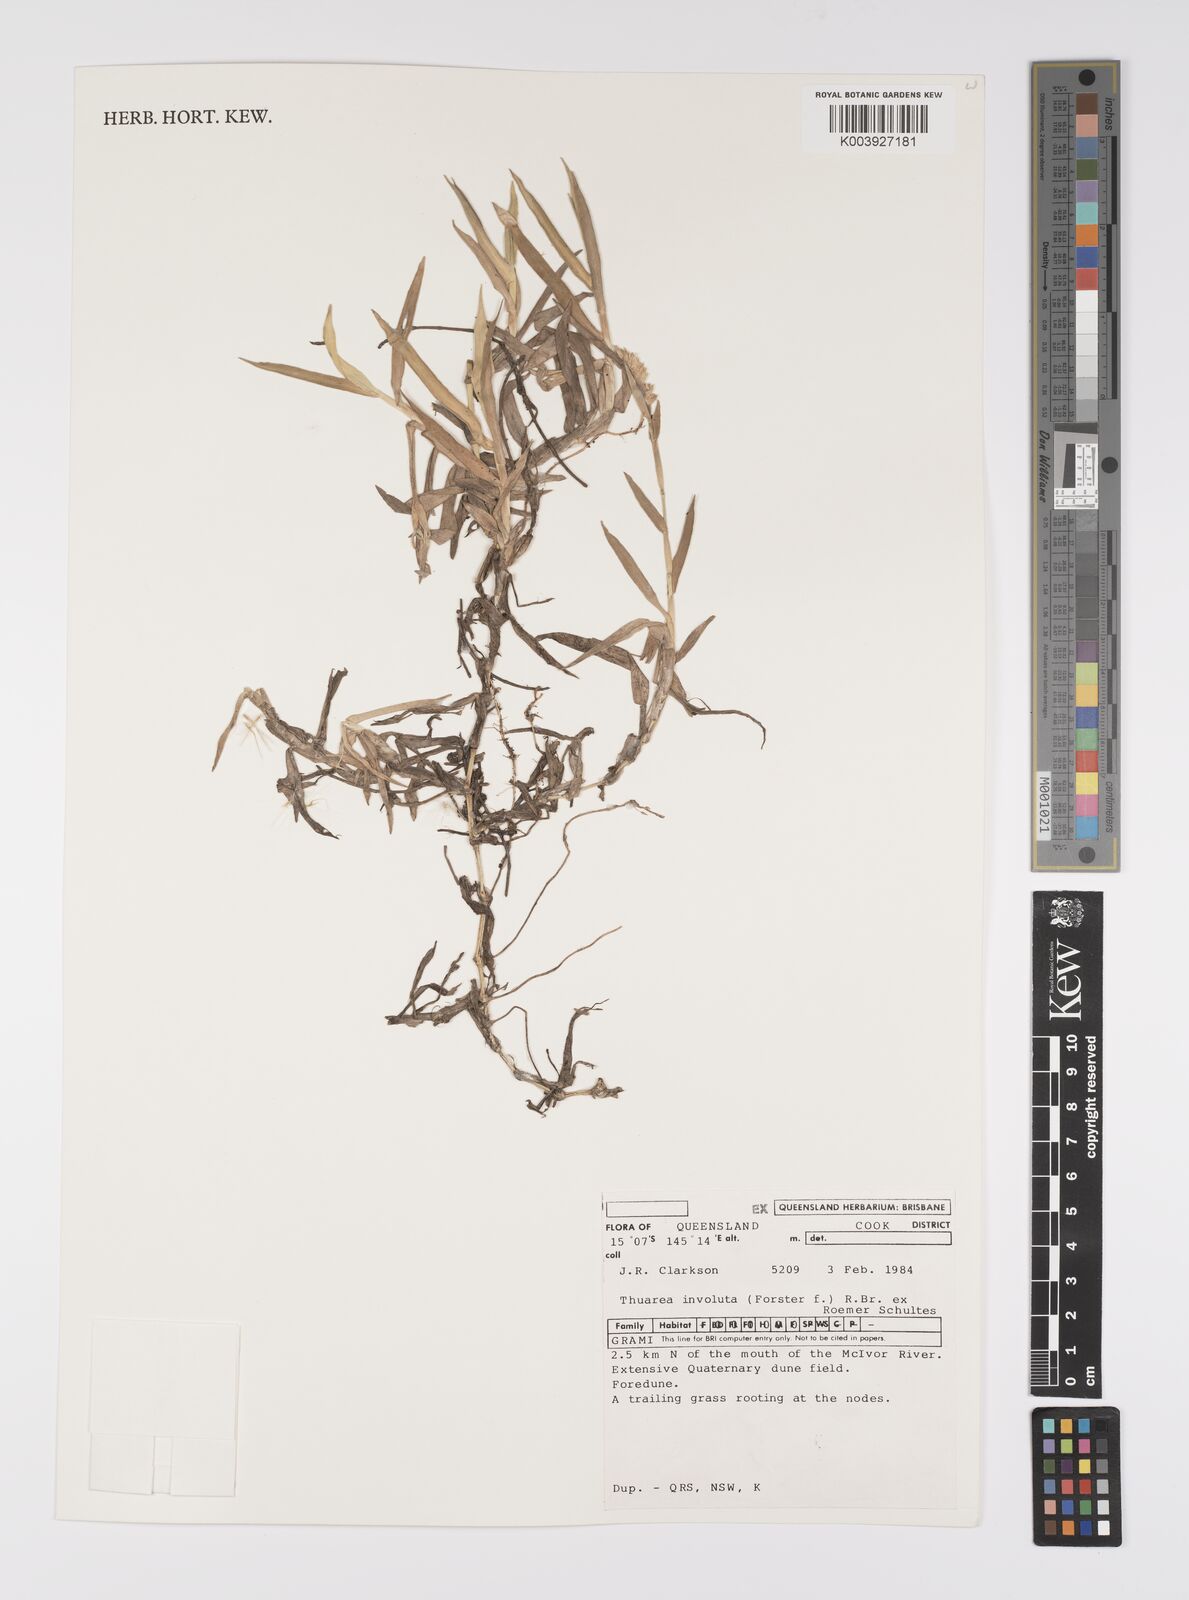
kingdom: Plantae
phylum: Tracheophyta
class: Liliopsida
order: Poales
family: Poaceae
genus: Thuarea
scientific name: Thuarea involuta
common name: Tropical beach grass
